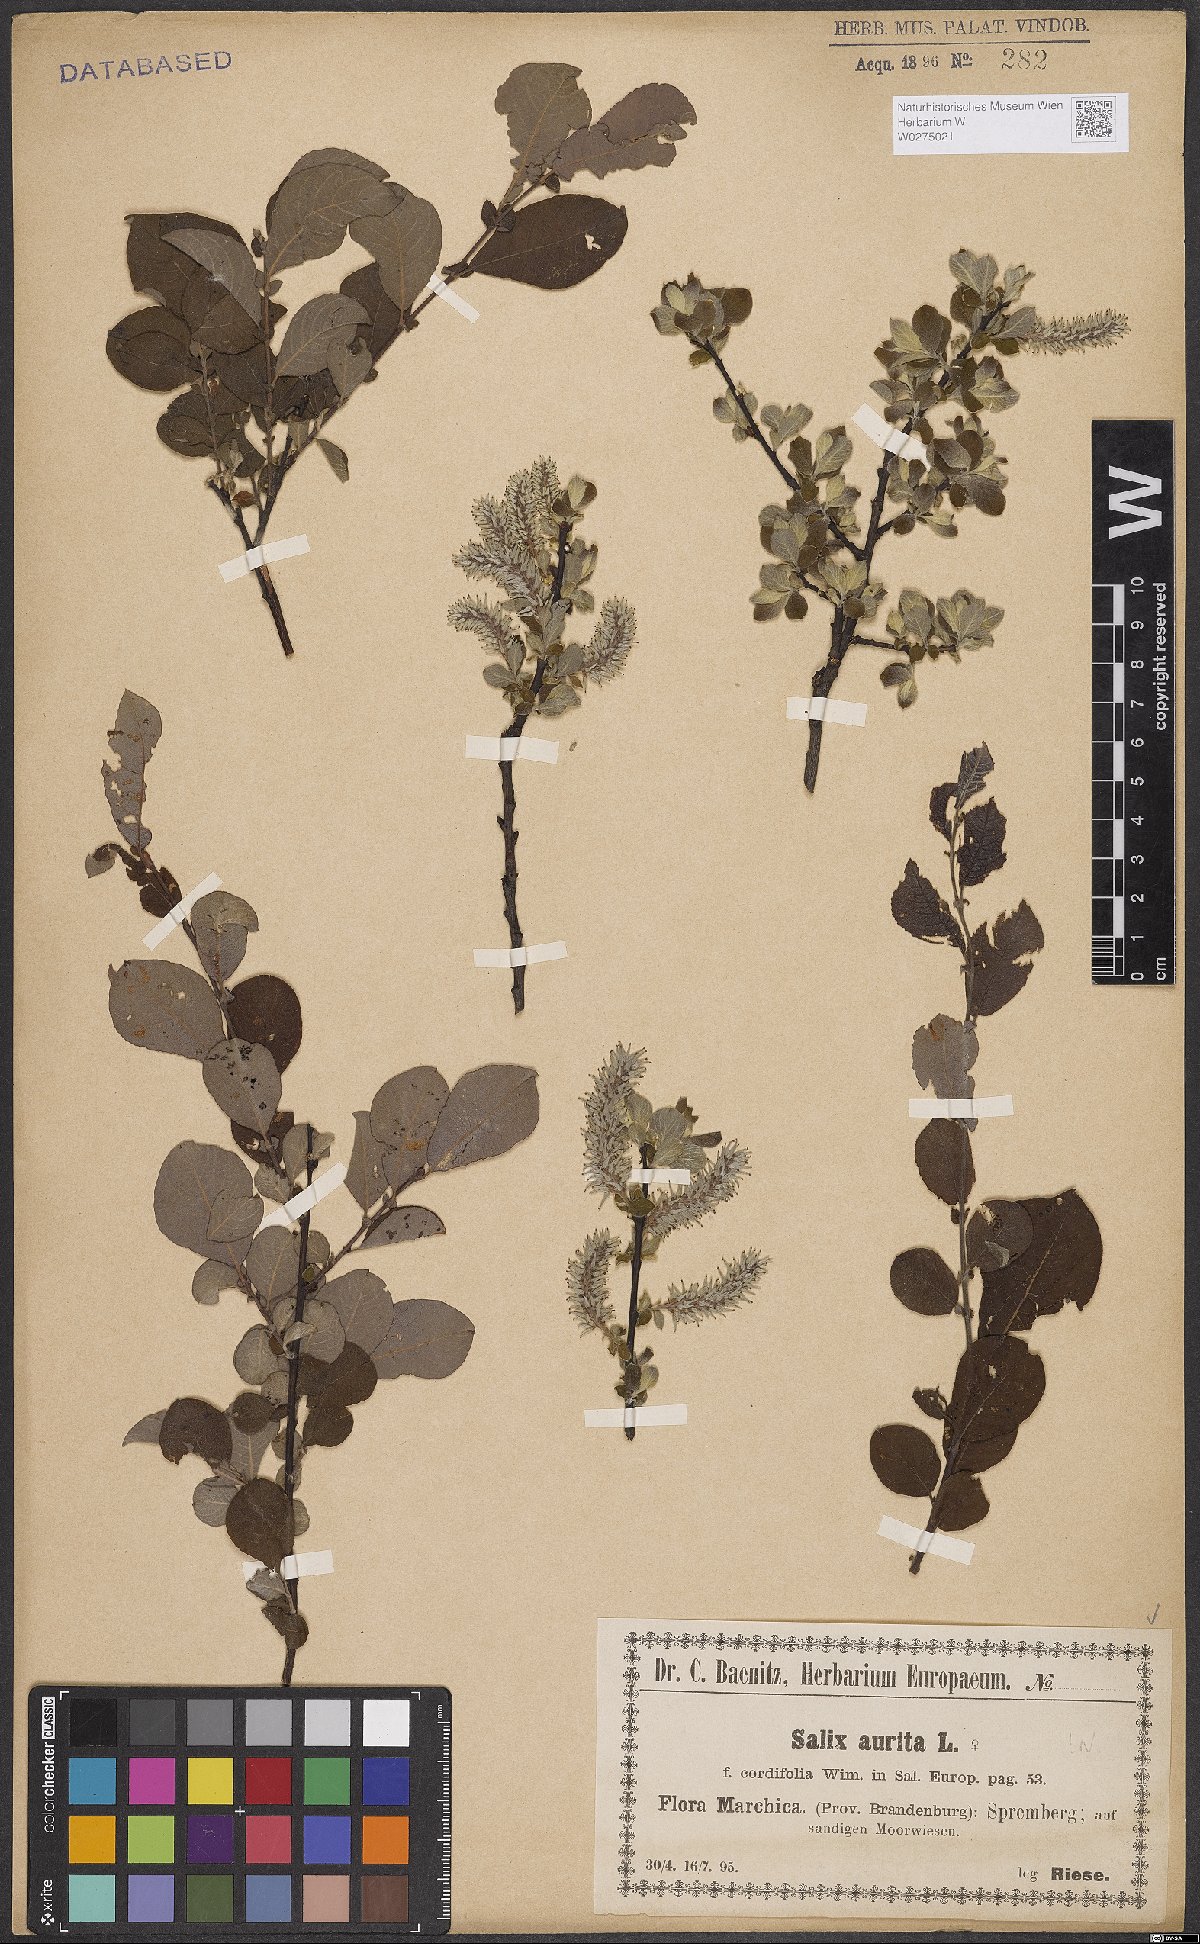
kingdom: Plantae
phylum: Tracheophyta
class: Magnoliopsida
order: Malpighiales
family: Salicaceae
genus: Salix
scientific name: Salix aurita
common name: Eared willow
